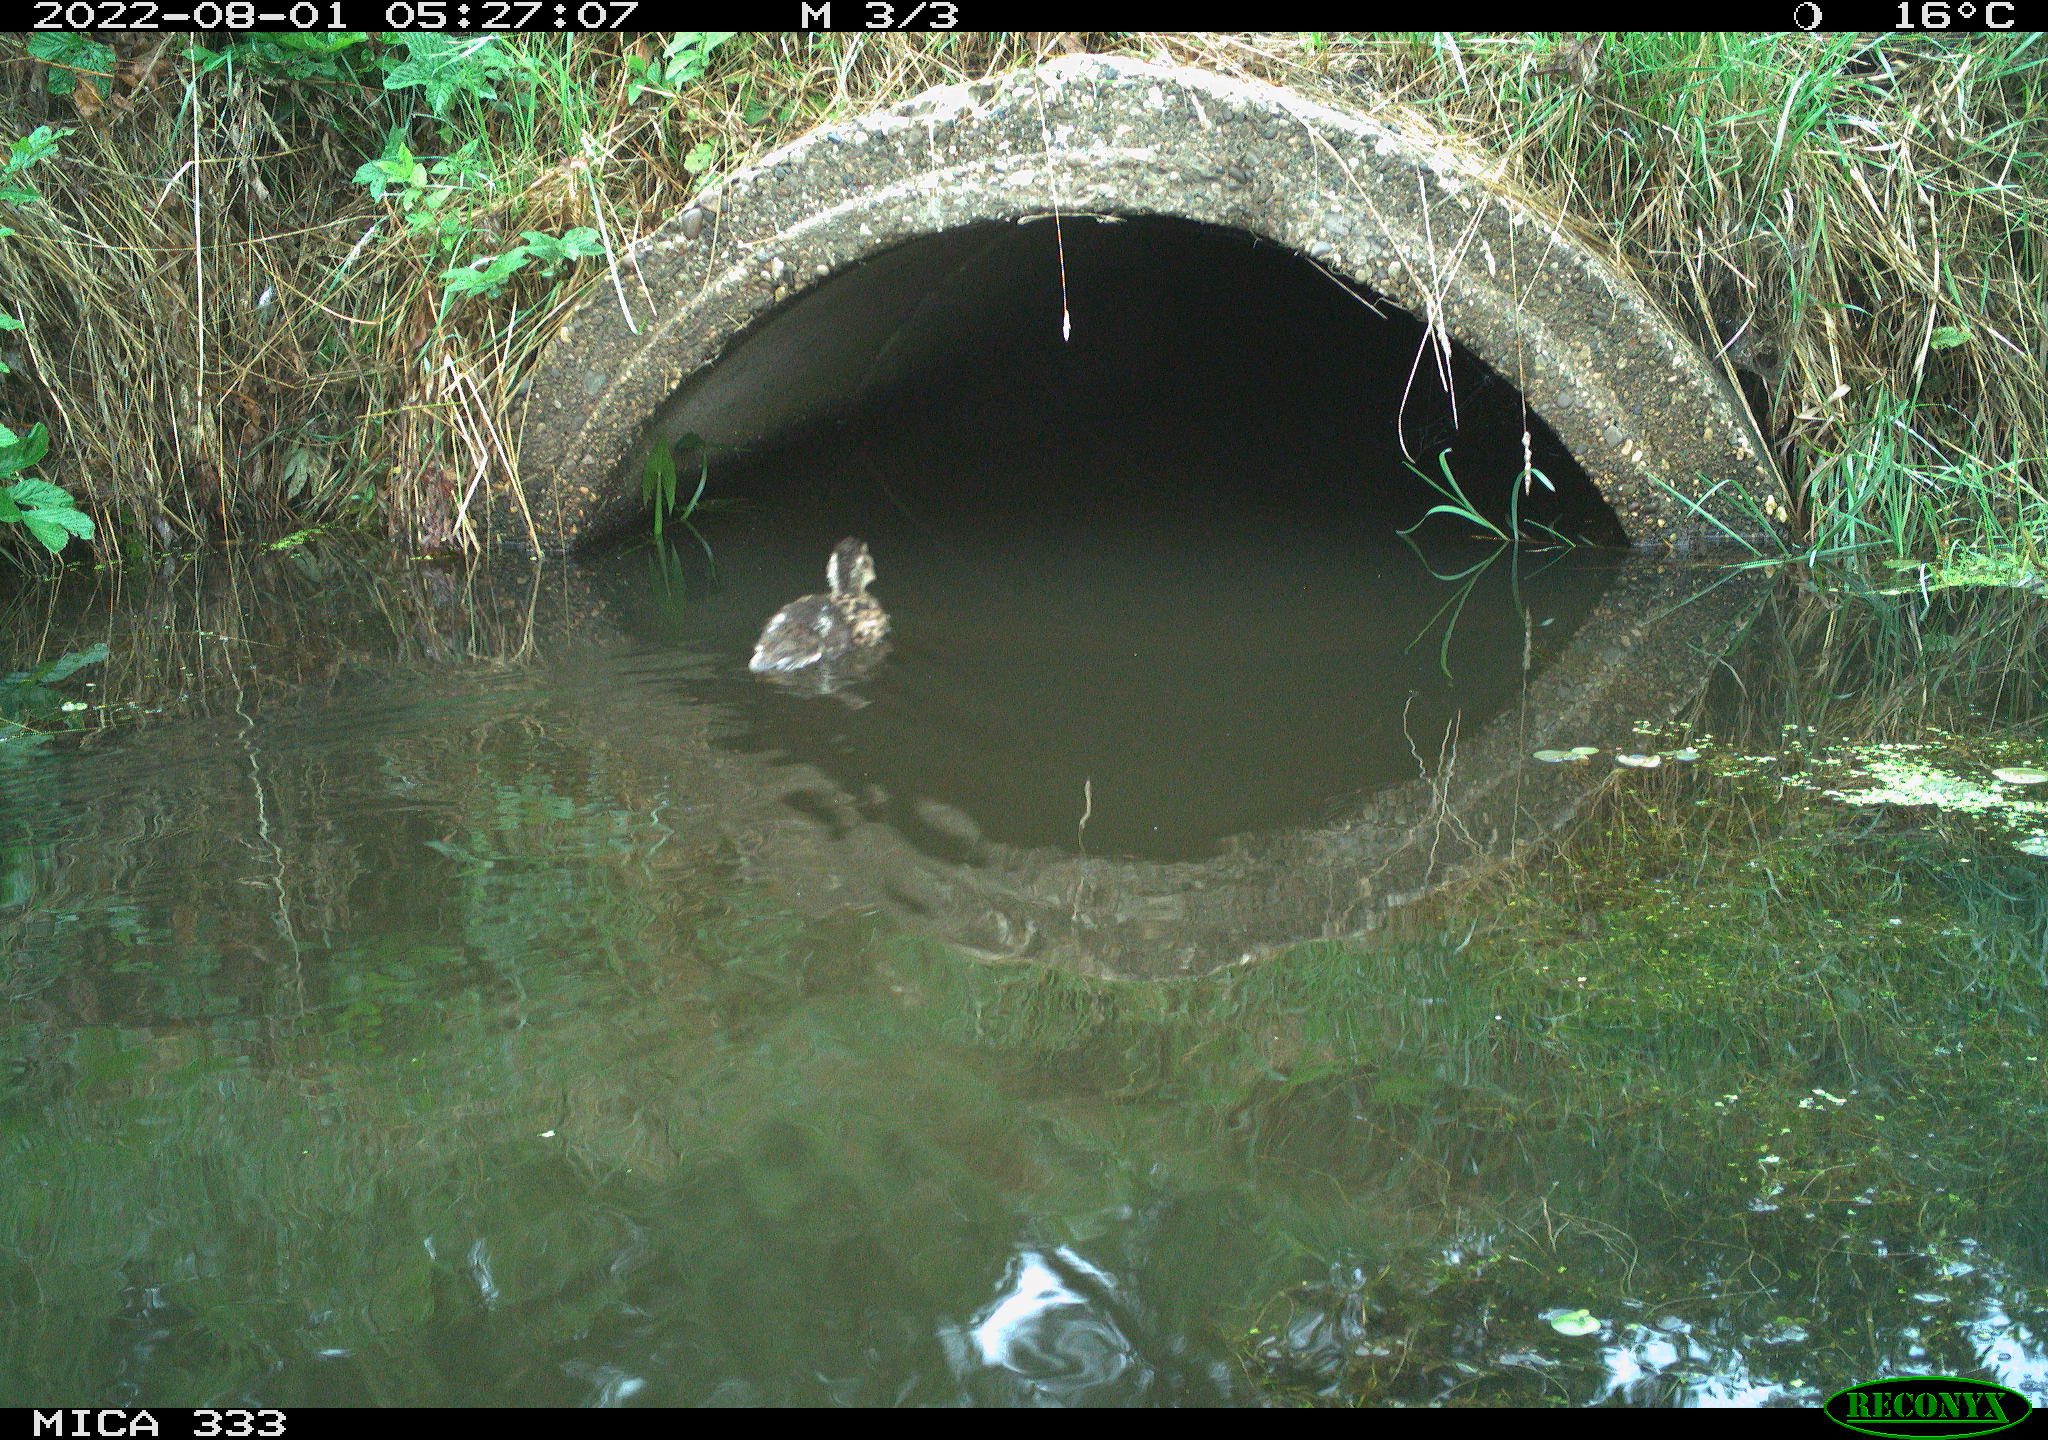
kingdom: Animalia
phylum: Chordata
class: Aves
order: Anseriformes
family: Anatidae
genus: Anas
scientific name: Anas platyrhynchos
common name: Mallard
